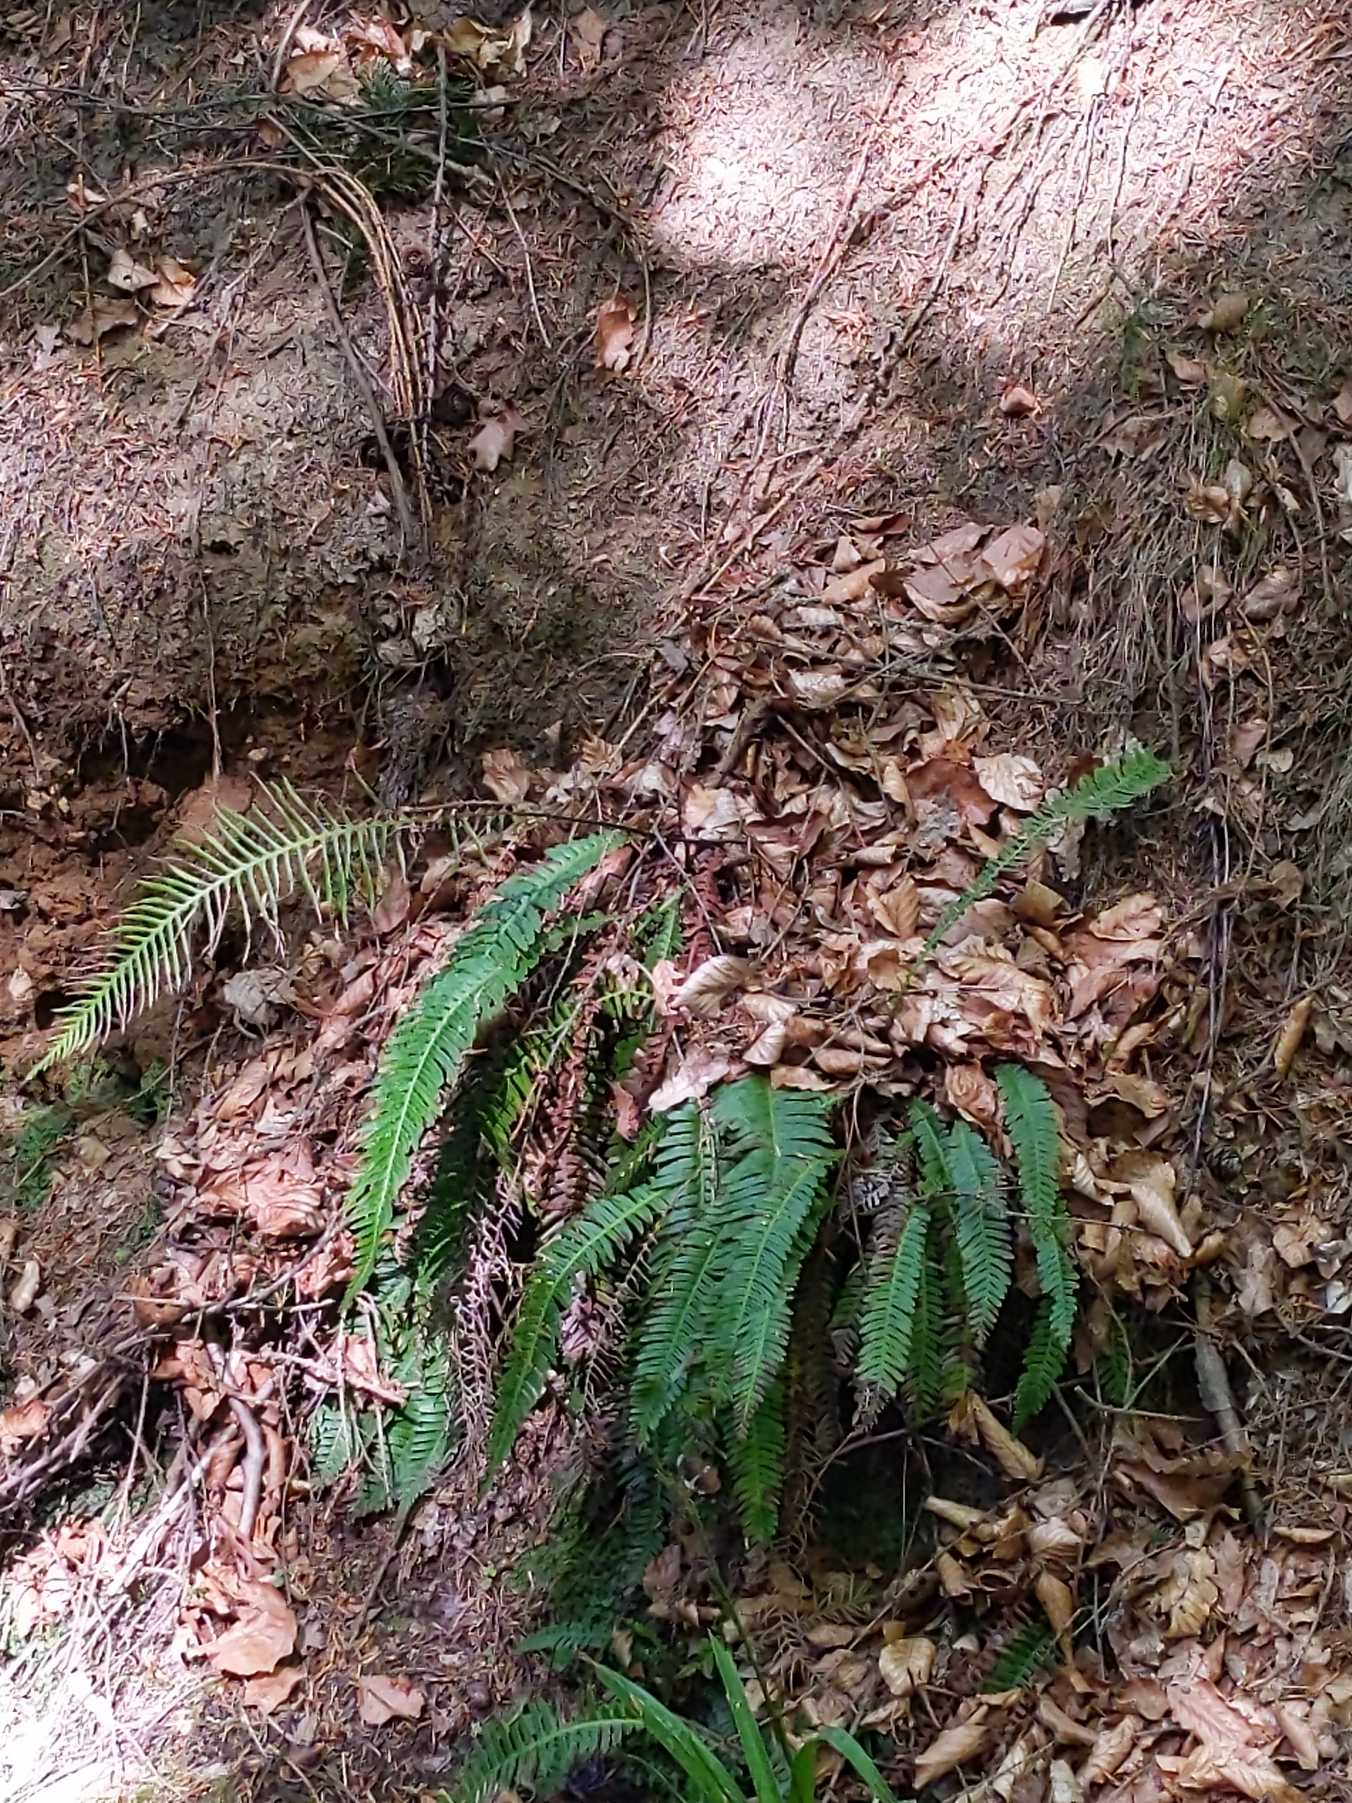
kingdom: Plantae
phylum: Tracheophyta
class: Polypodiopsida
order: Polypodiales
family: Blechnaceae
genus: Struthiopteris
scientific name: Struthiopteris spicant
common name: Kambregne
